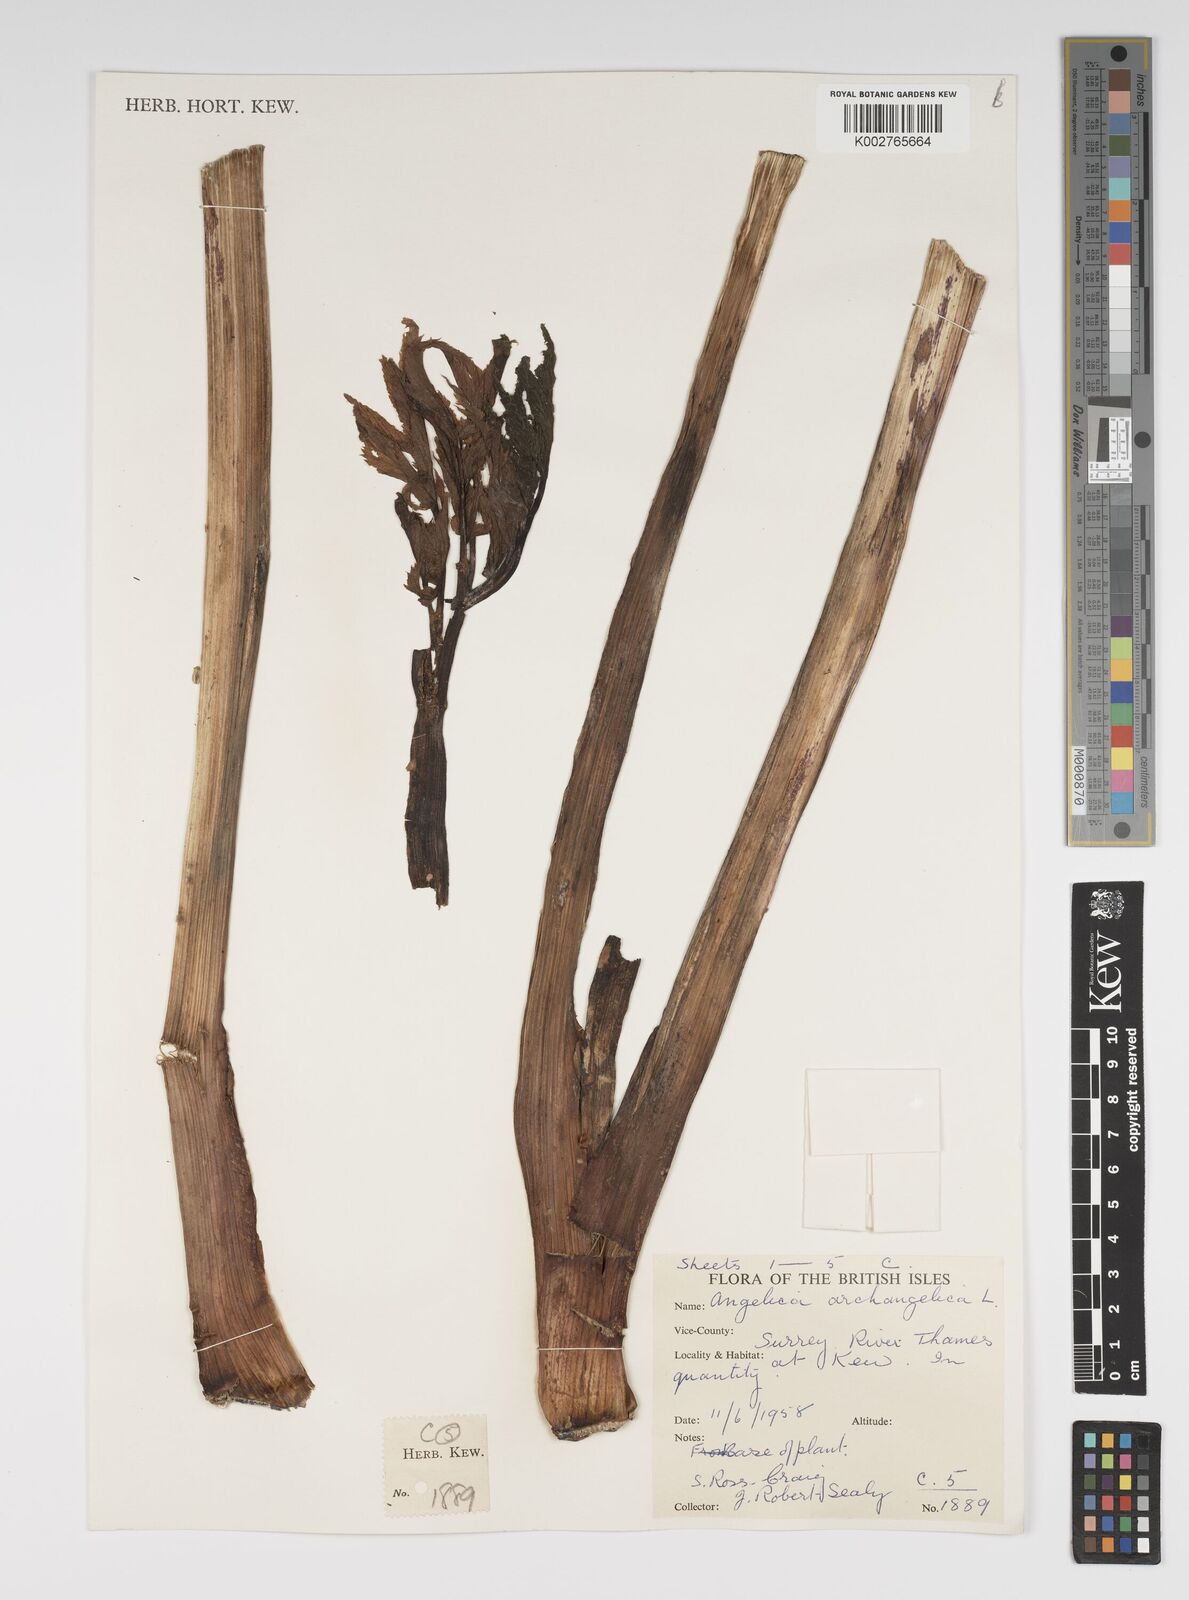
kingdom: Plantae
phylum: Tracheophyta
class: Magnoliopsida
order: Apiales
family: Apiaceae
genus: Angelica
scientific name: Angelica archangelica
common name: Garden angelica
